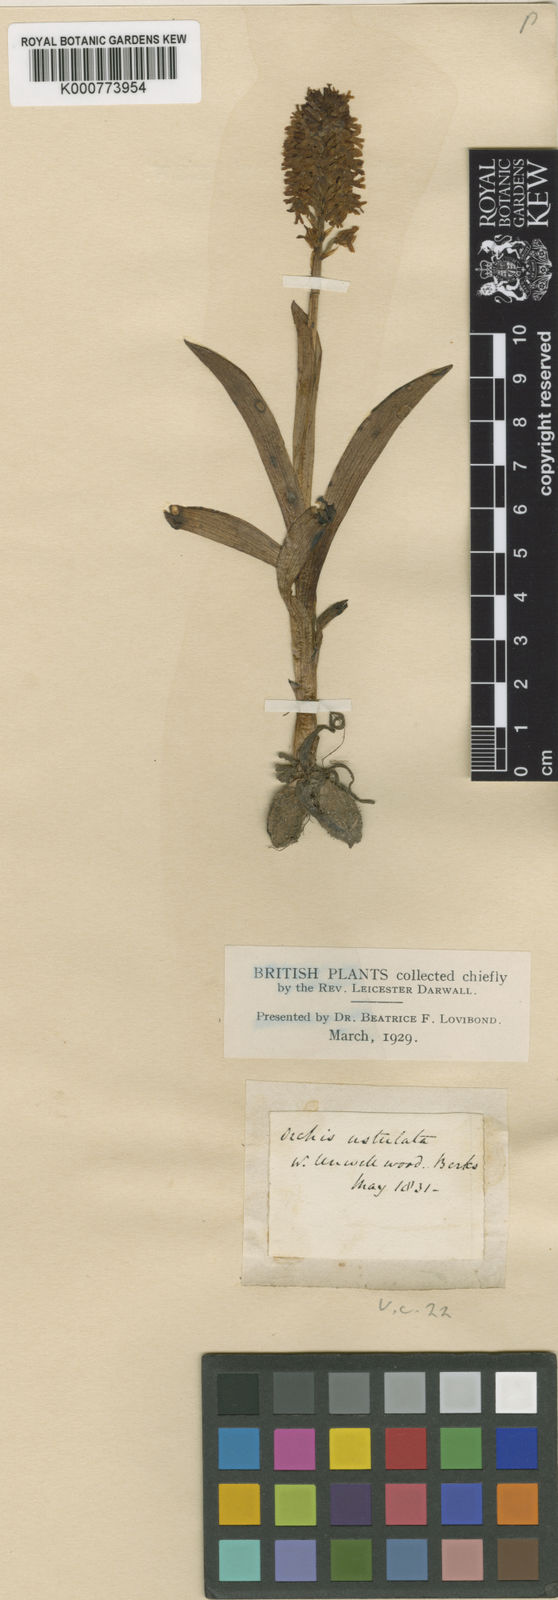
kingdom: Plantae
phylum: Tracheophyta
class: Liliopsida
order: Asparagales
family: Orchidaceae
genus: Neotinea
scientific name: Neotinea ustulata
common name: Burnt orchid
